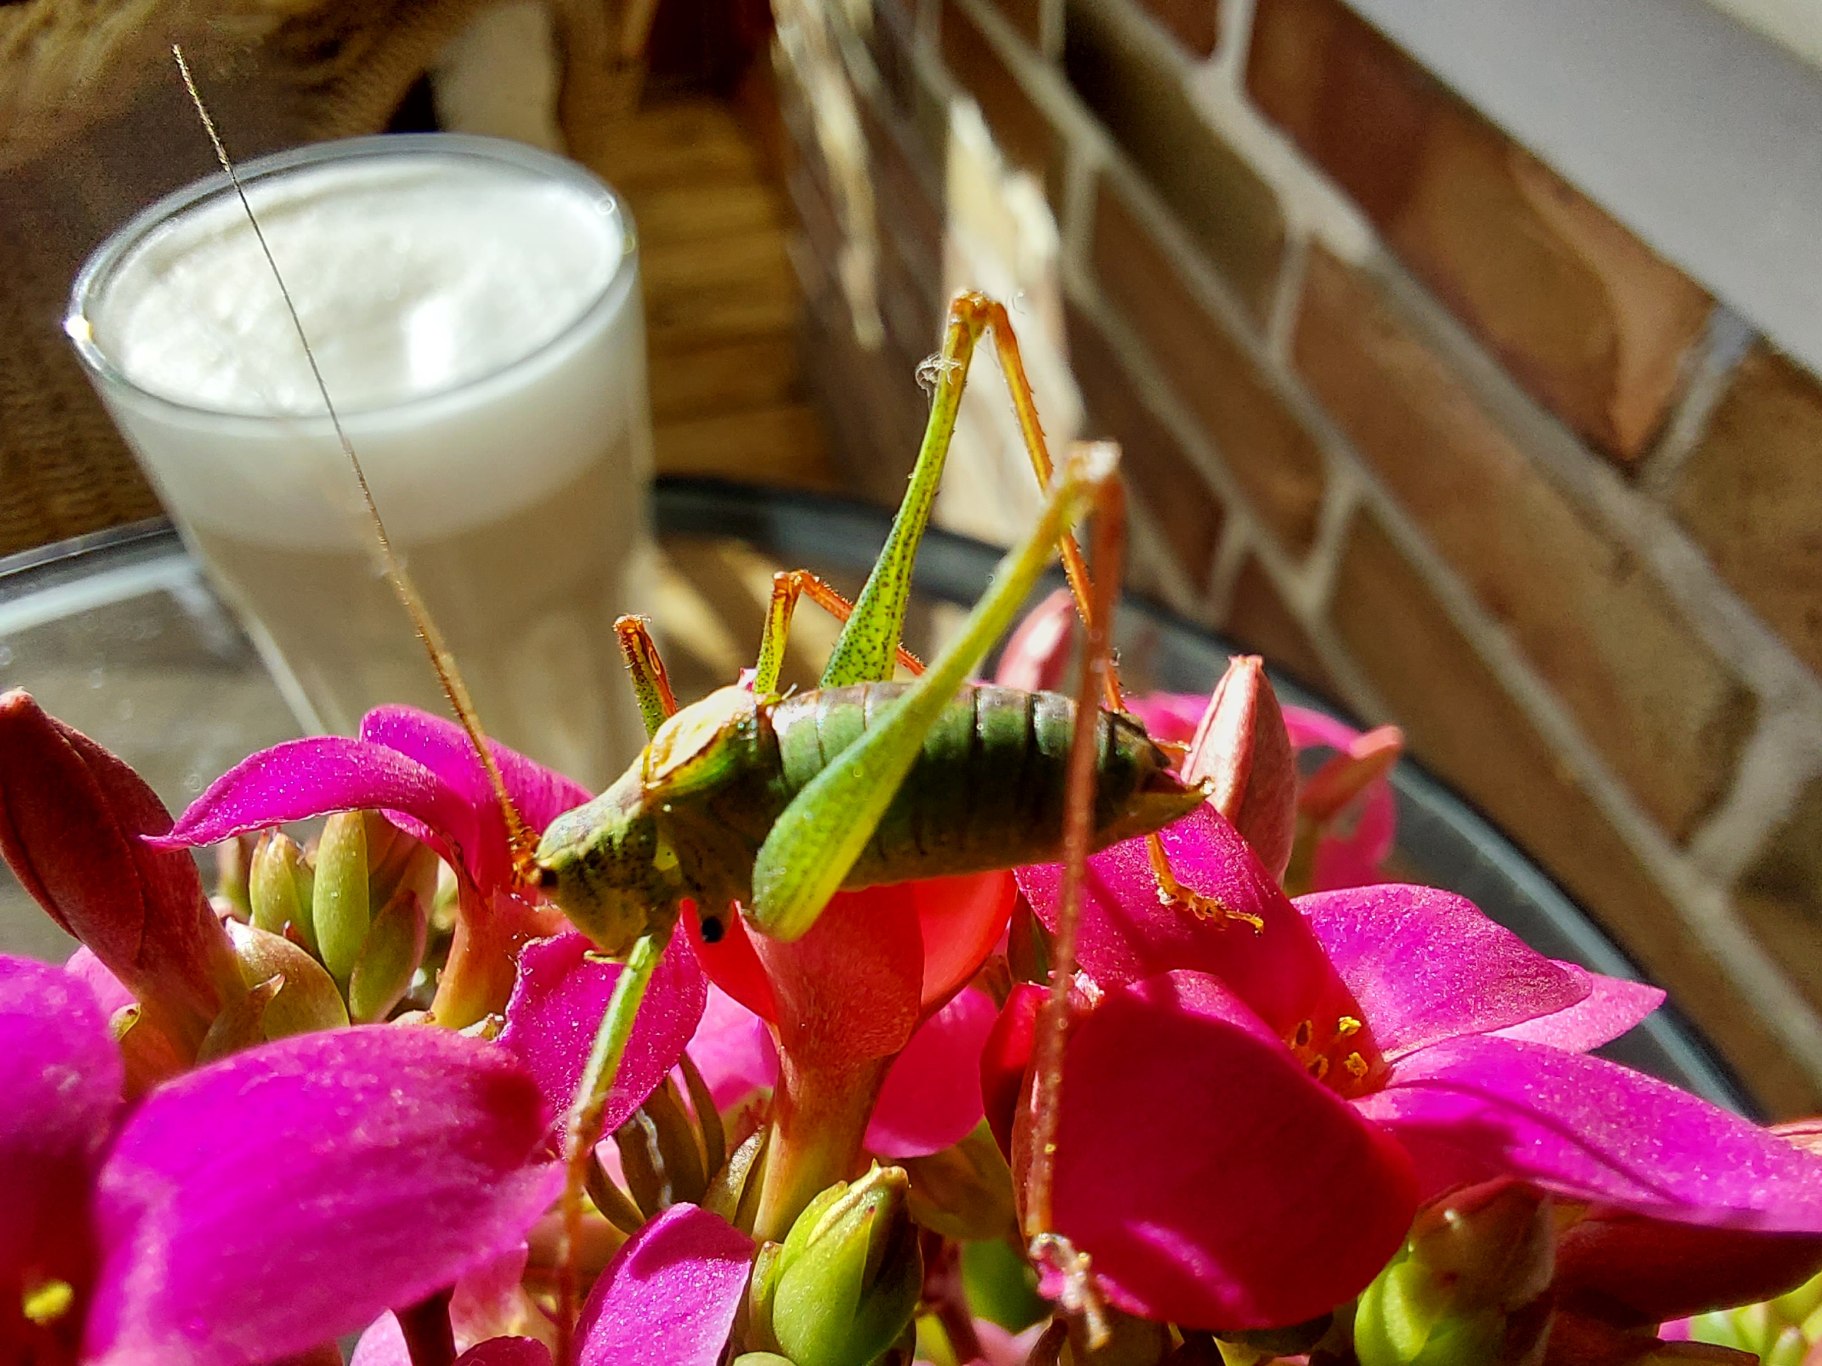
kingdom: Animalia
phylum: Arthropoda
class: Insecta
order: Orthoptera
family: Tettigoniidae
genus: Leptophyes
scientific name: Leptophyes punctatissima
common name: Krumknivgræshoppe
